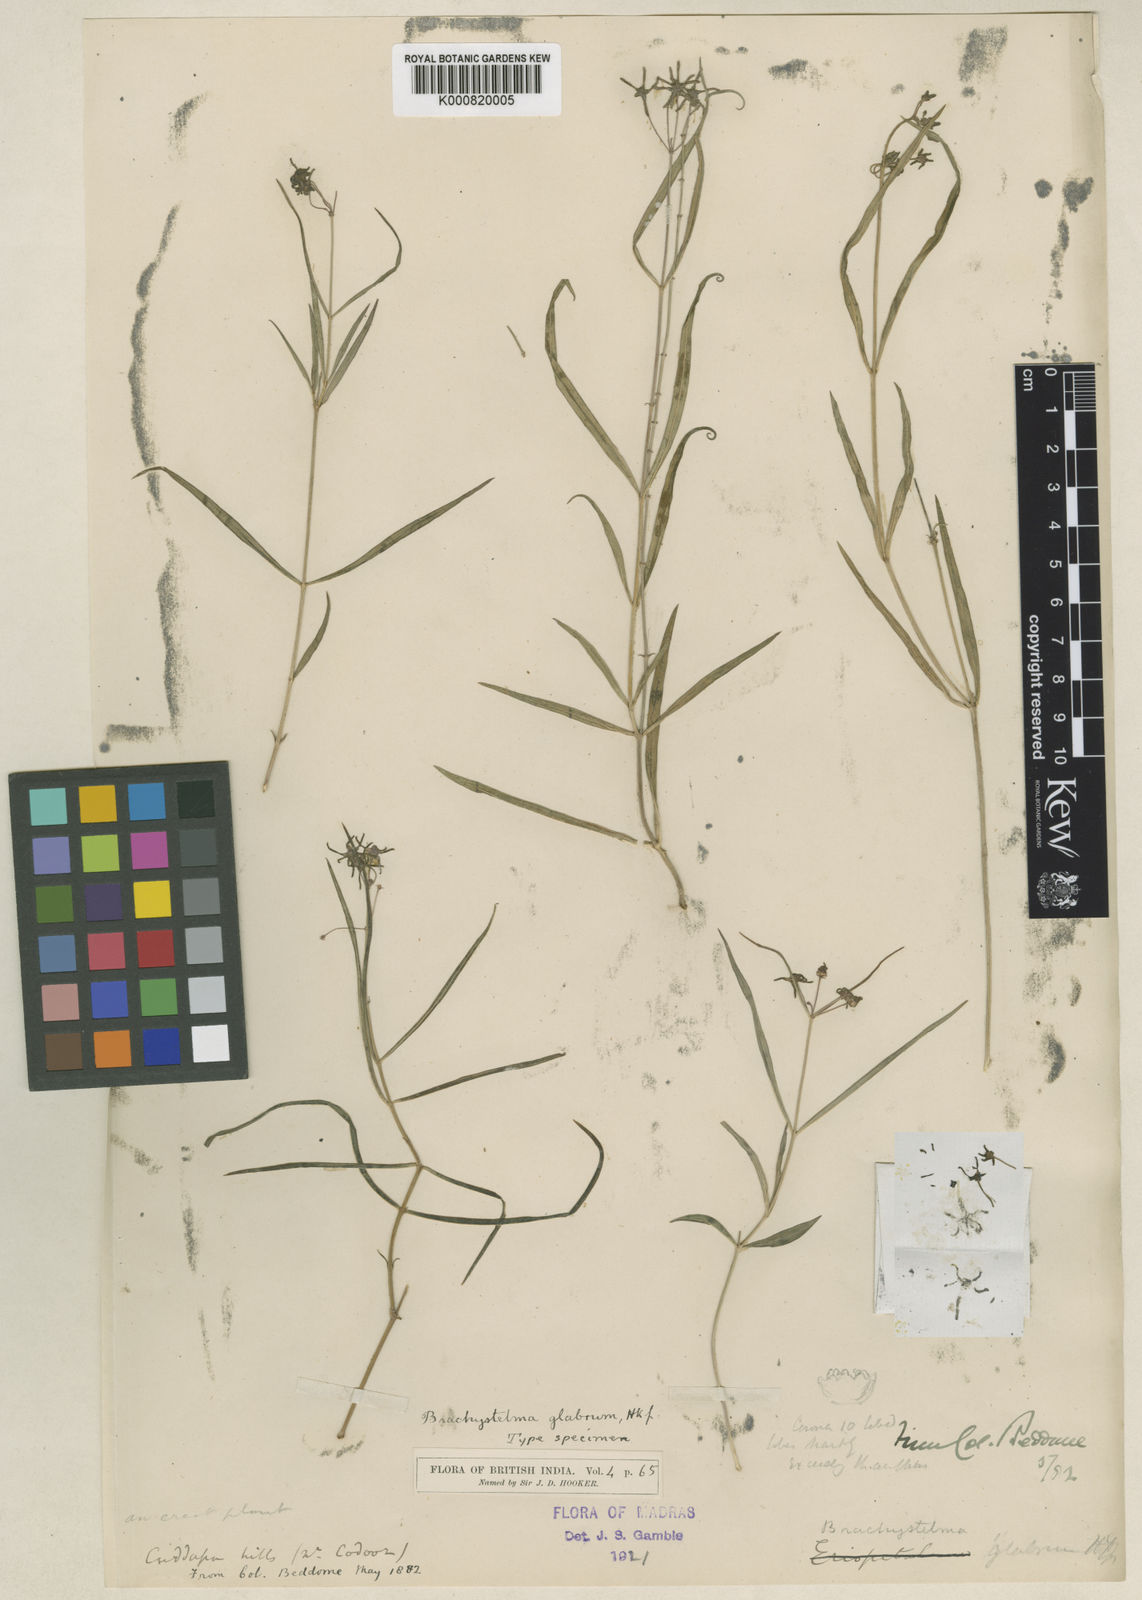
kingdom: Plantae
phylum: Tracheophyta
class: Magnoliopsida
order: Gentianales
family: Apocynaceae
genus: Ceropegia
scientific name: Ceropegia glabra
